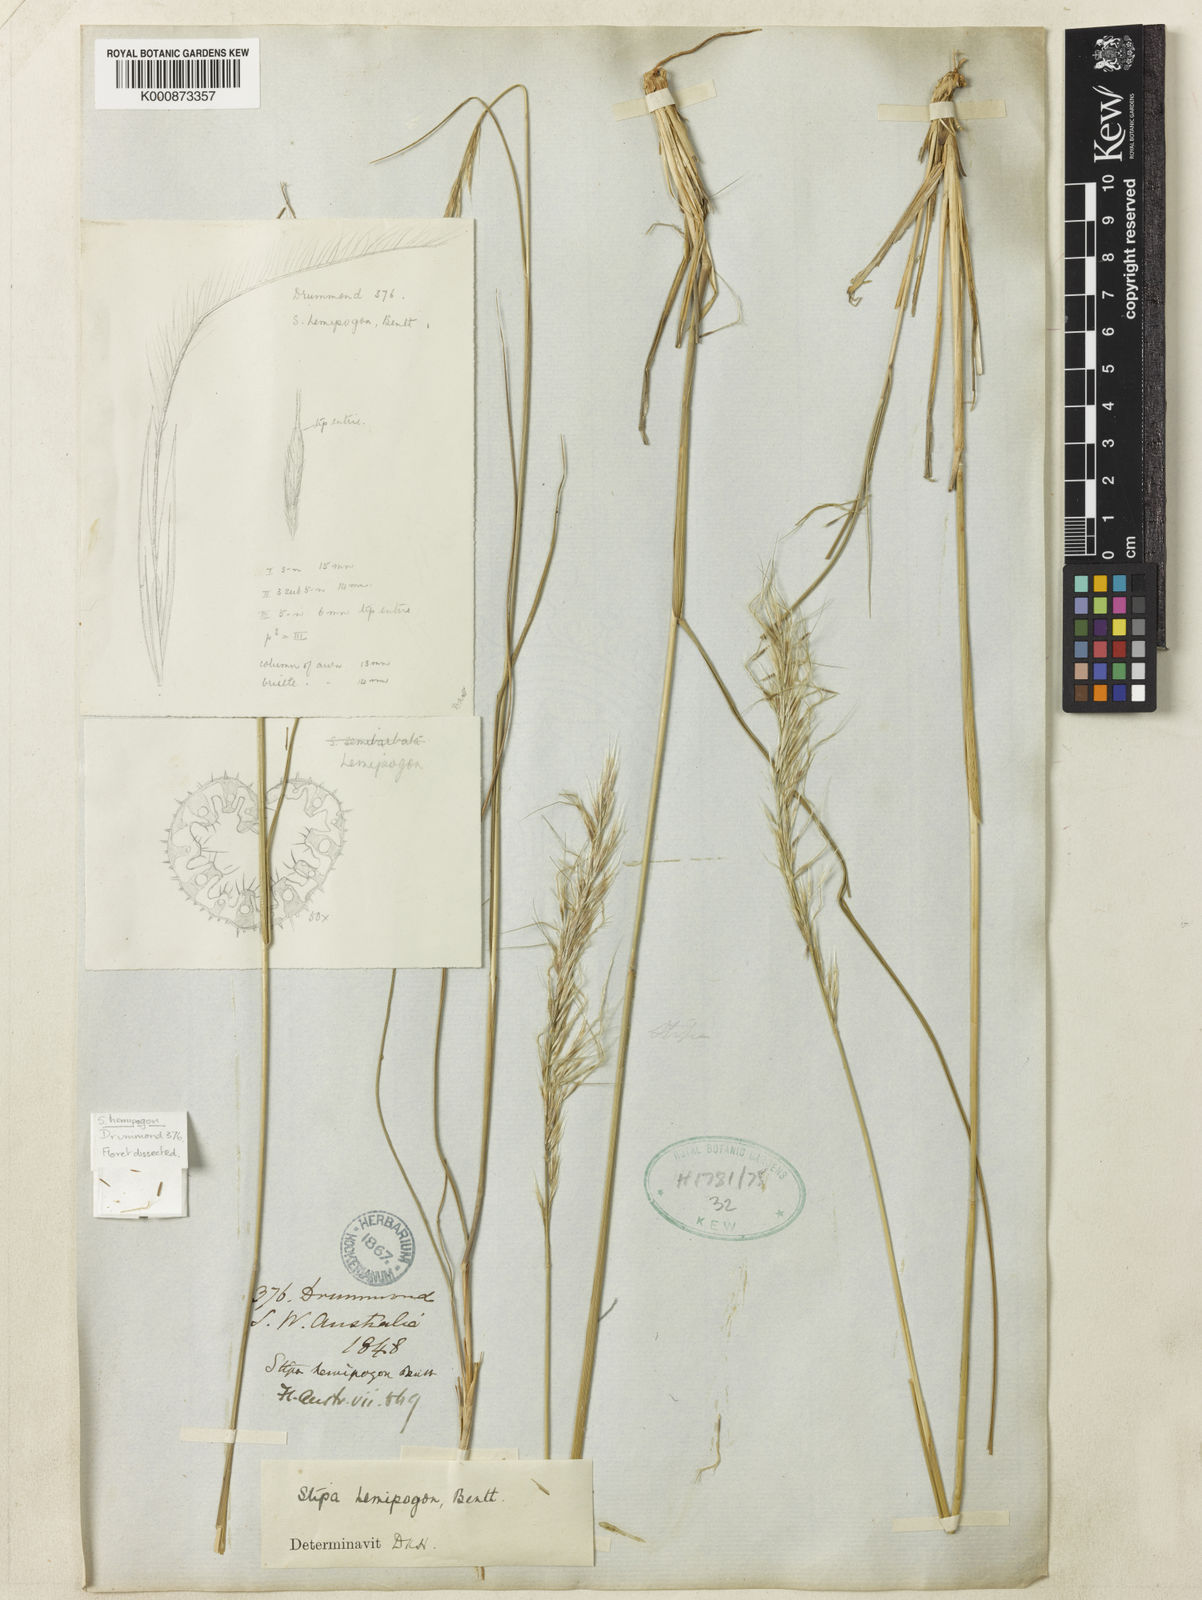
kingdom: Plantae
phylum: Tracheophyta
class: Liliopsida
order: Poales
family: Poaceae
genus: Austrostipa
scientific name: Austrostipa hemipogon
